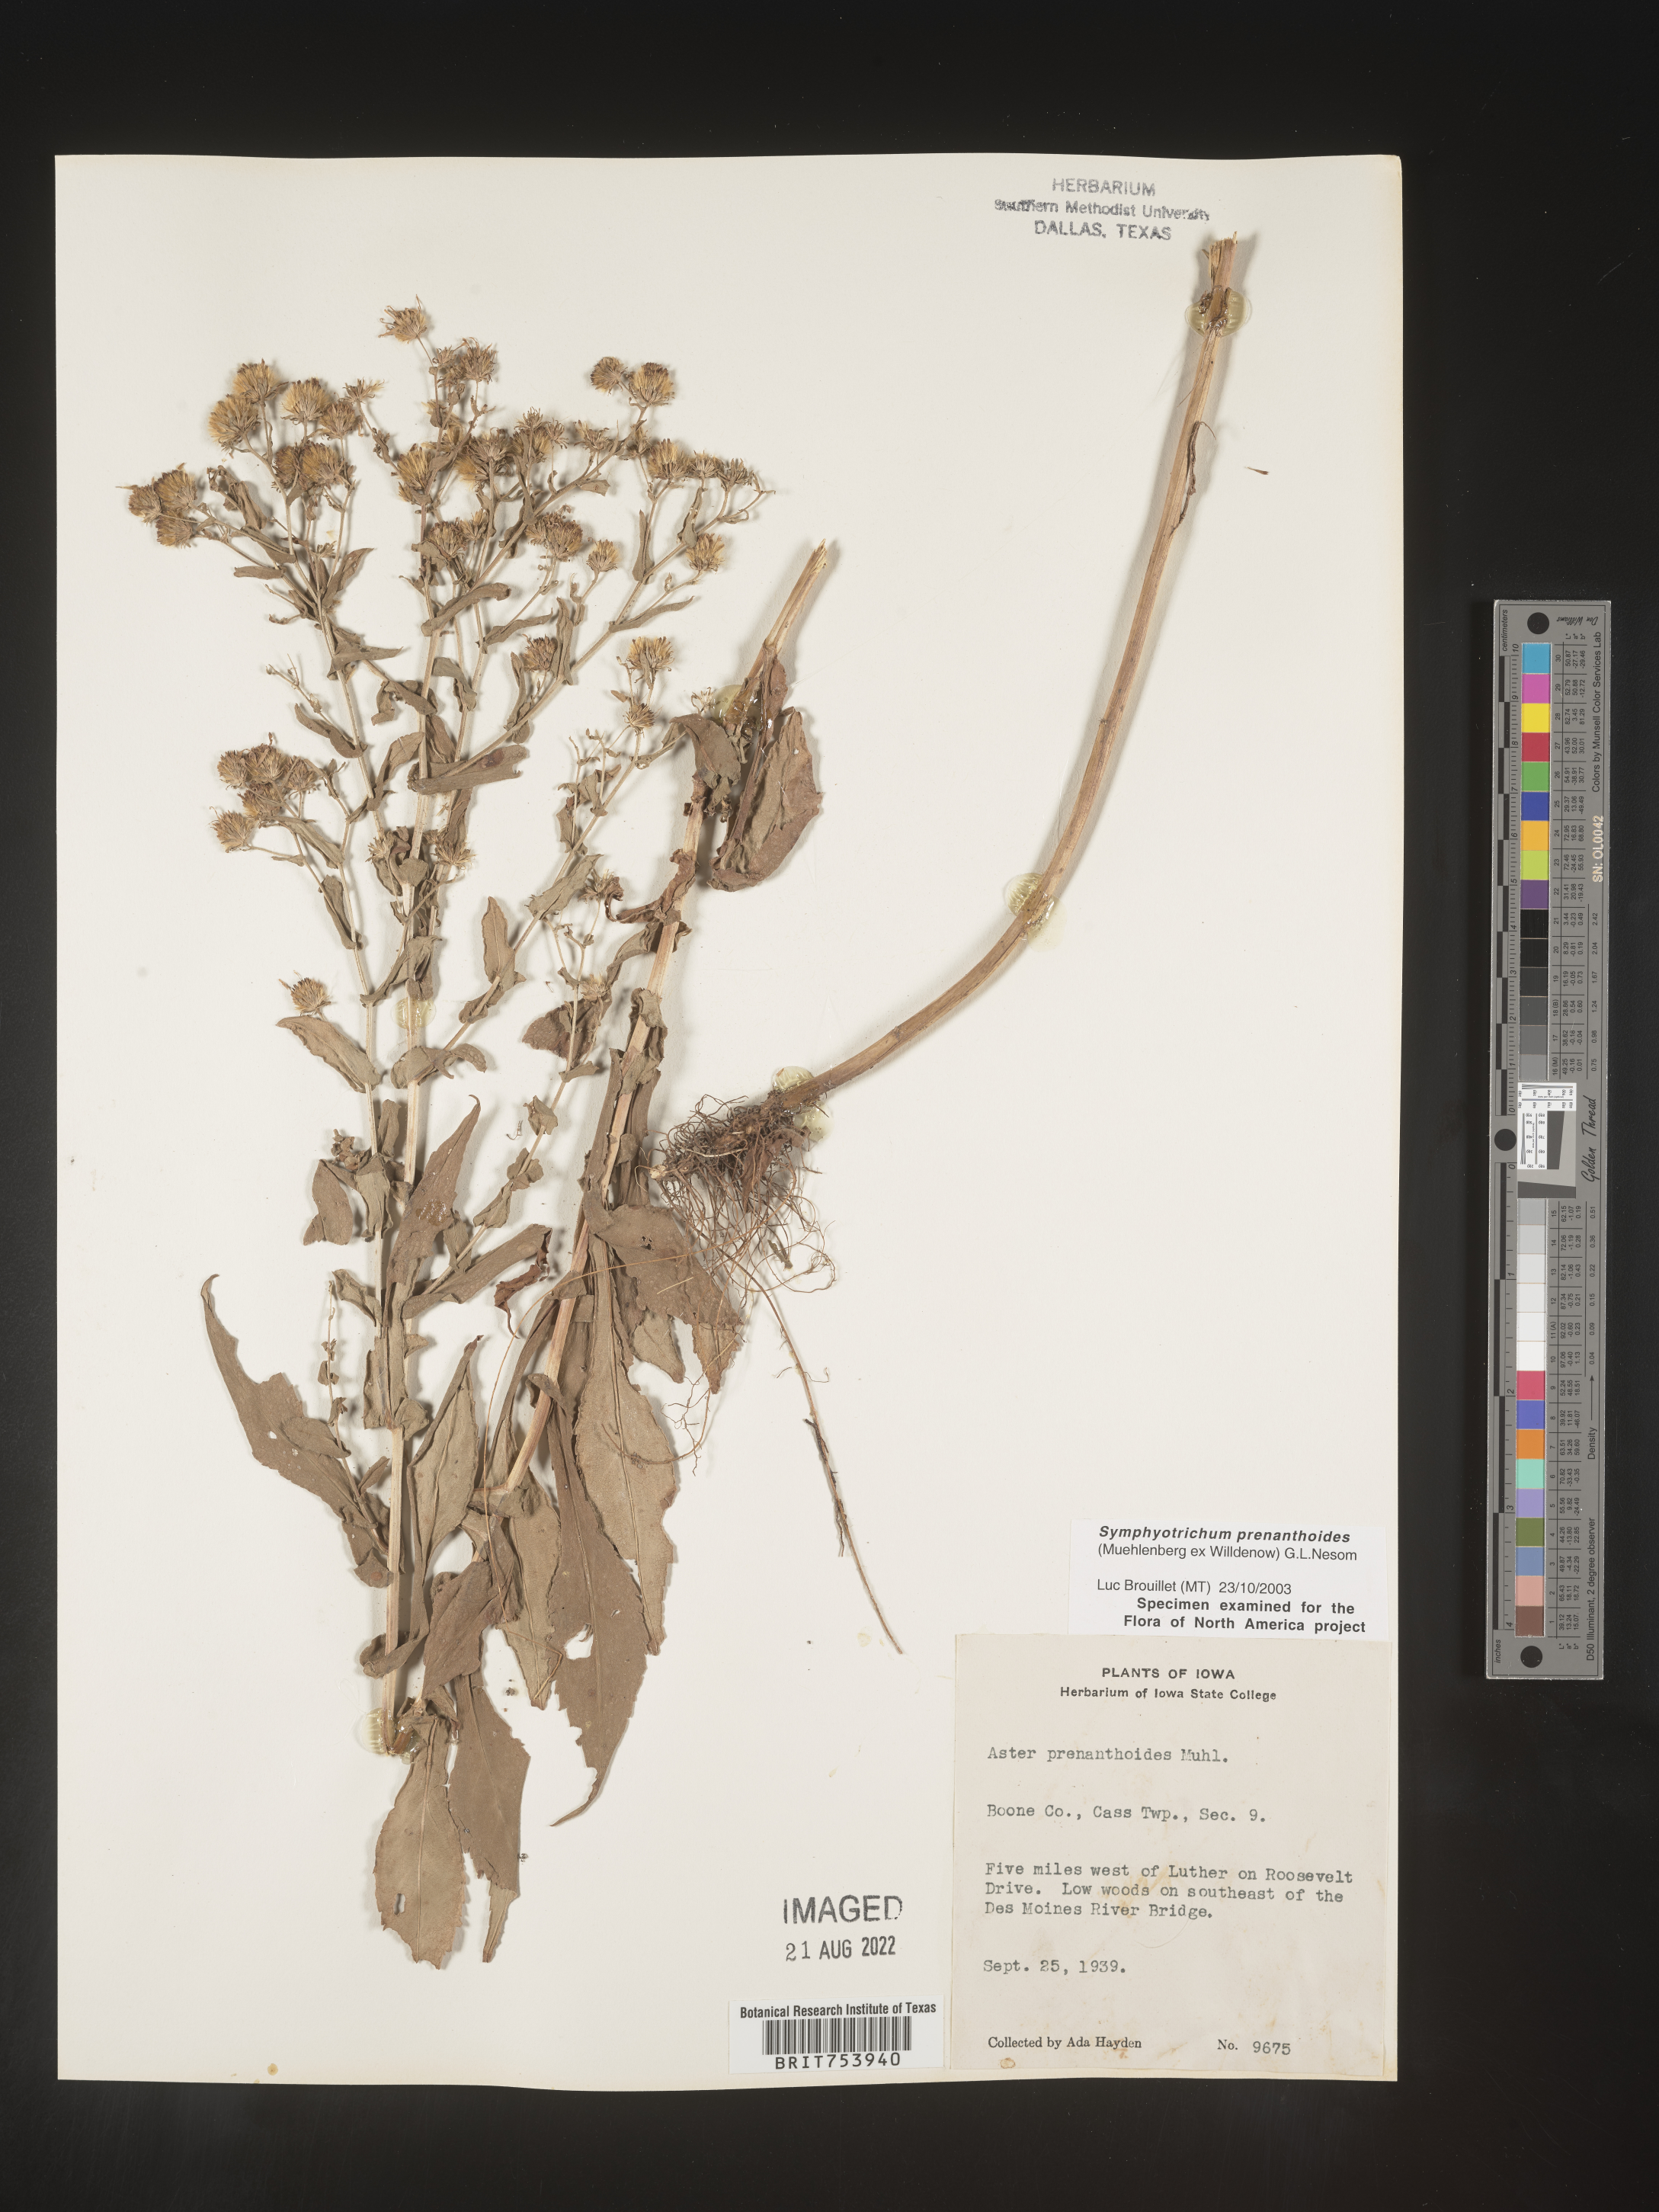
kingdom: Plantae
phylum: Tracheophyta
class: Magnoliopsida
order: Asterales
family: Asteraceae
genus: Symphyotrichum
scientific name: Symphyotrichum prenanthoides
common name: Crooked-stem aster
